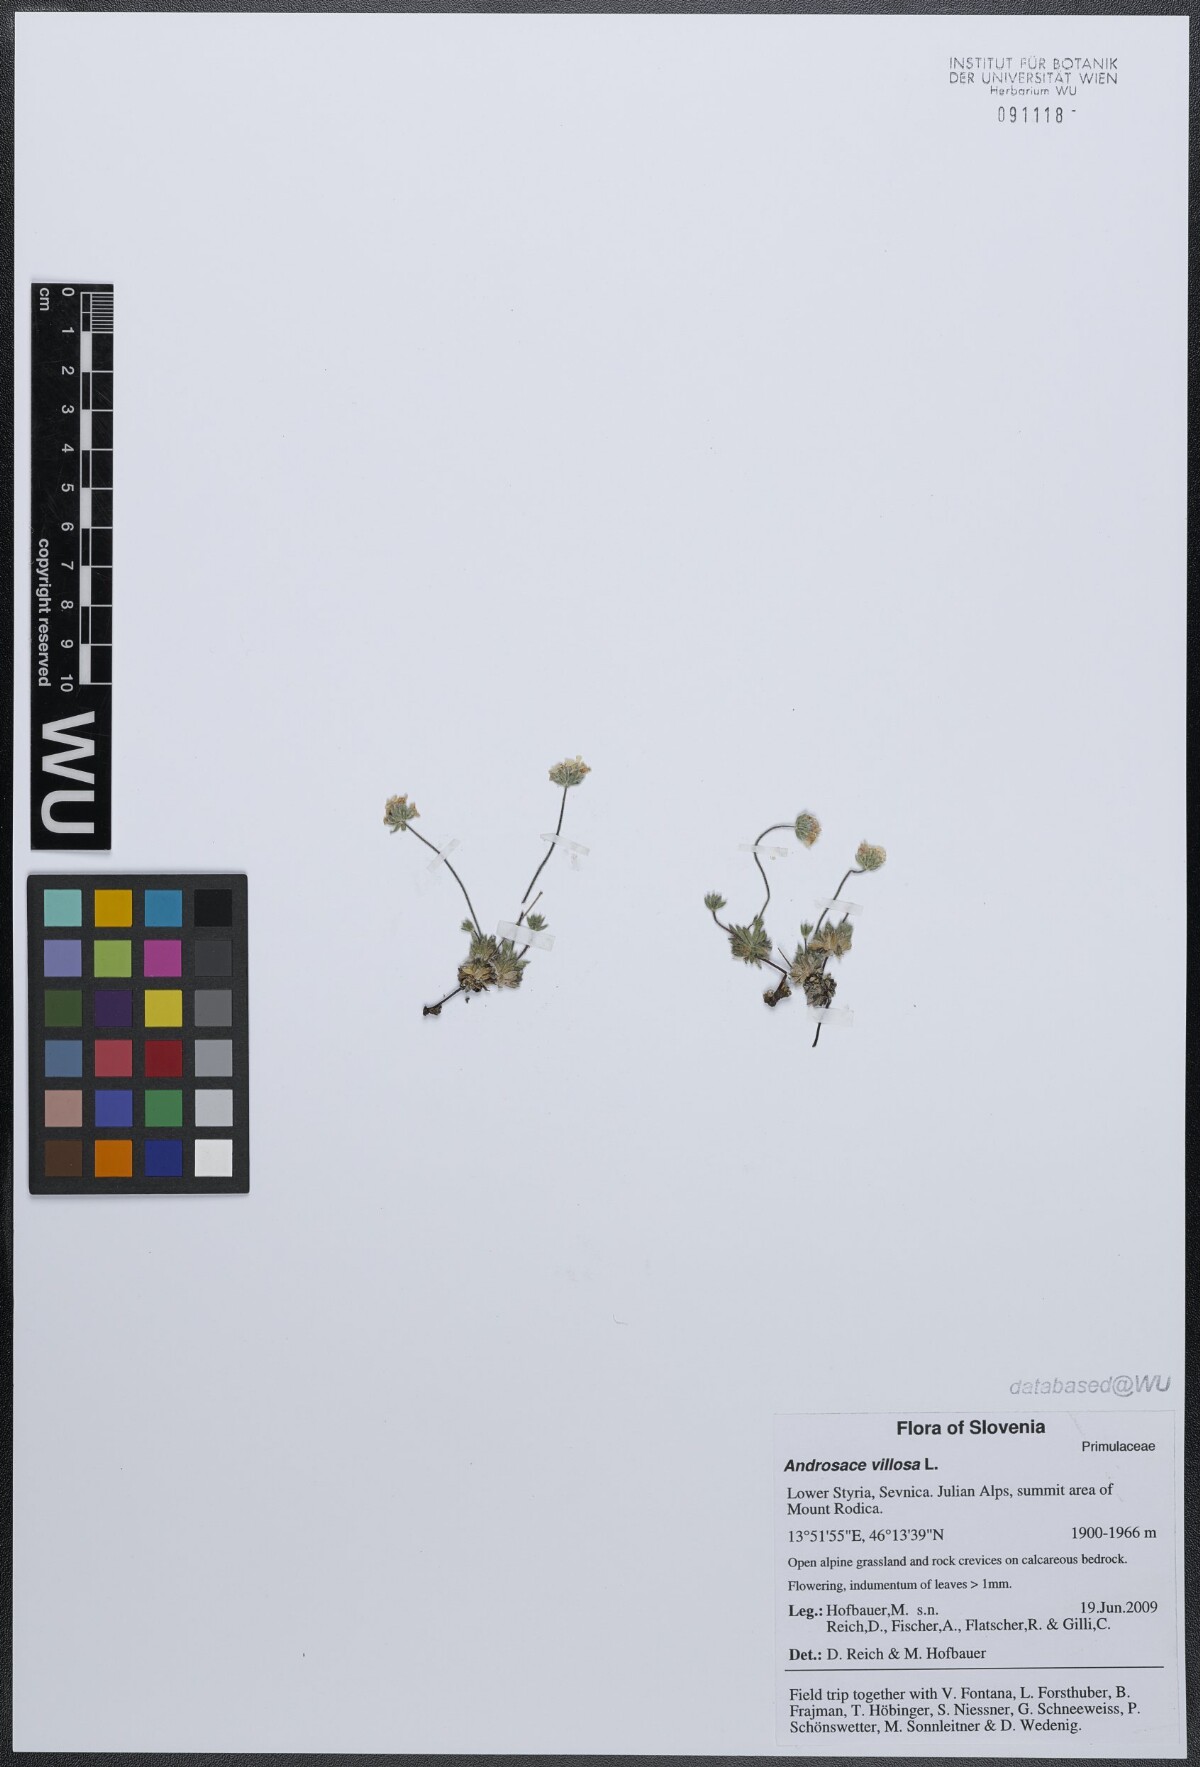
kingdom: Plantae
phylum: Tracheophyta
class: Magnoliopsida
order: Ericales
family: Primulaceae
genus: Androsace
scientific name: Androsace villosa
